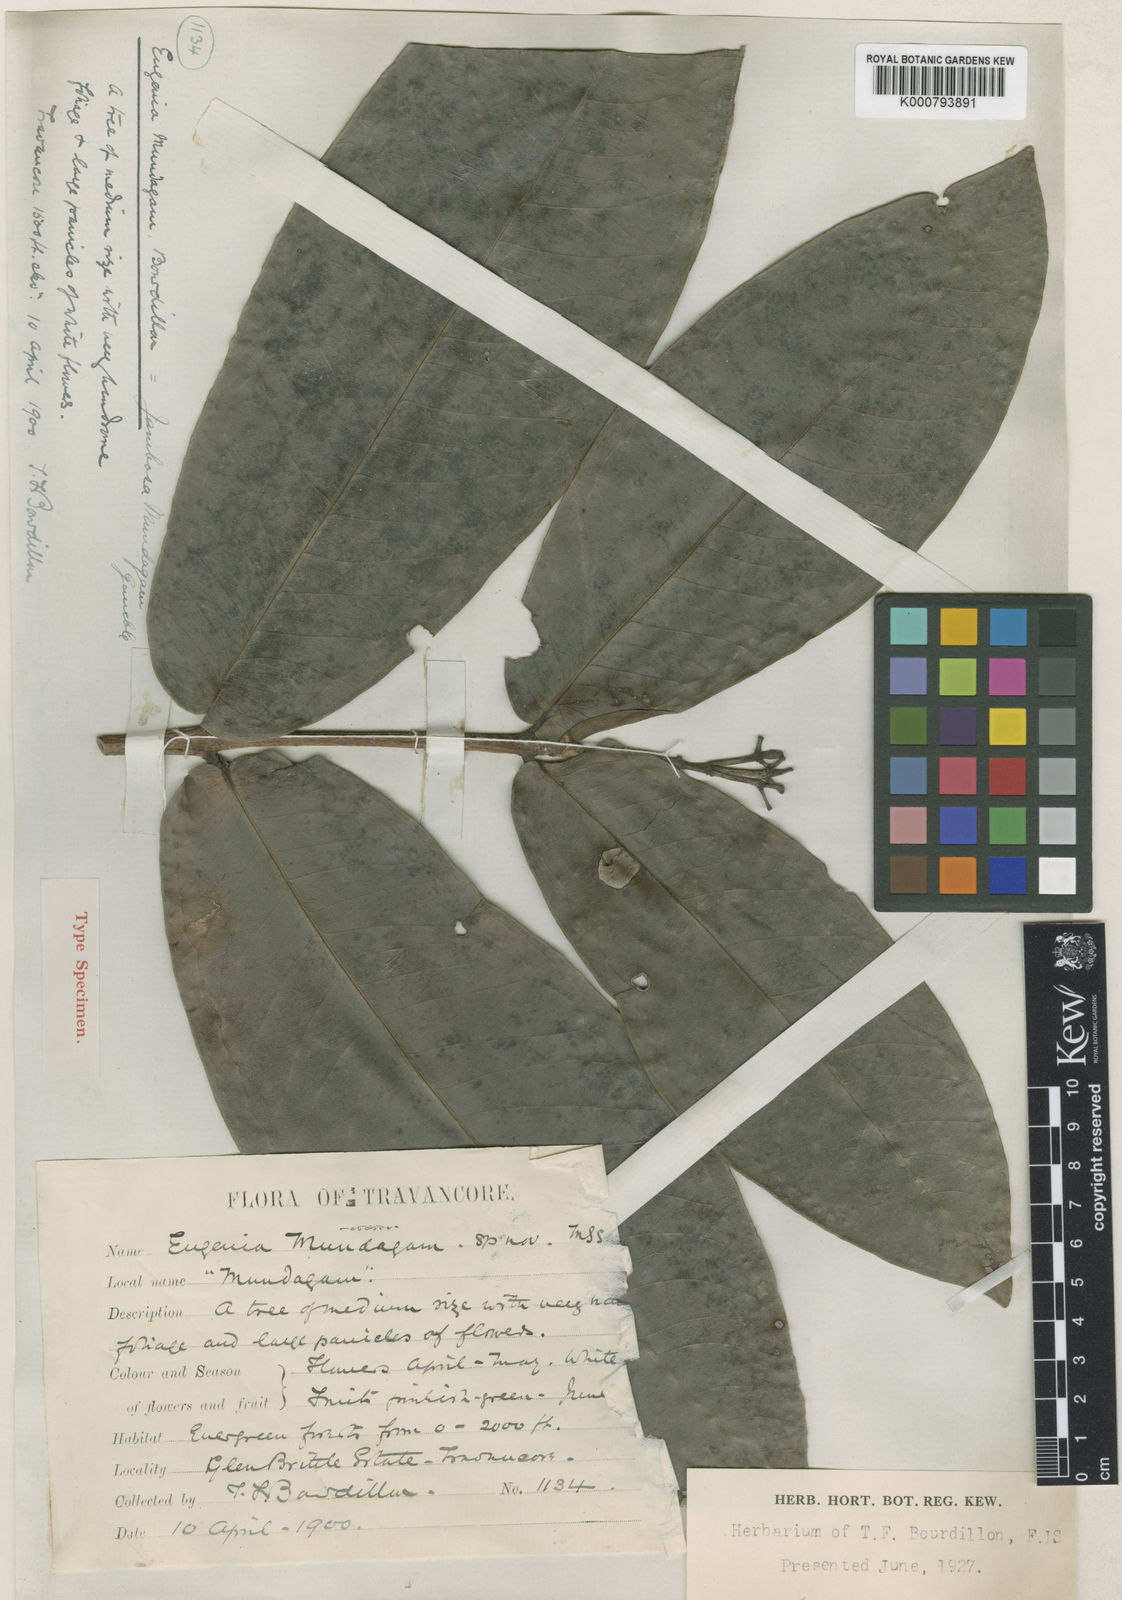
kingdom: Plantae
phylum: Tracheophyta
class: Magnoliopsida
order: Myrtales
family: Myrtaceae
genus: Syzygium
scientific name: Syzygium rama-varmae
